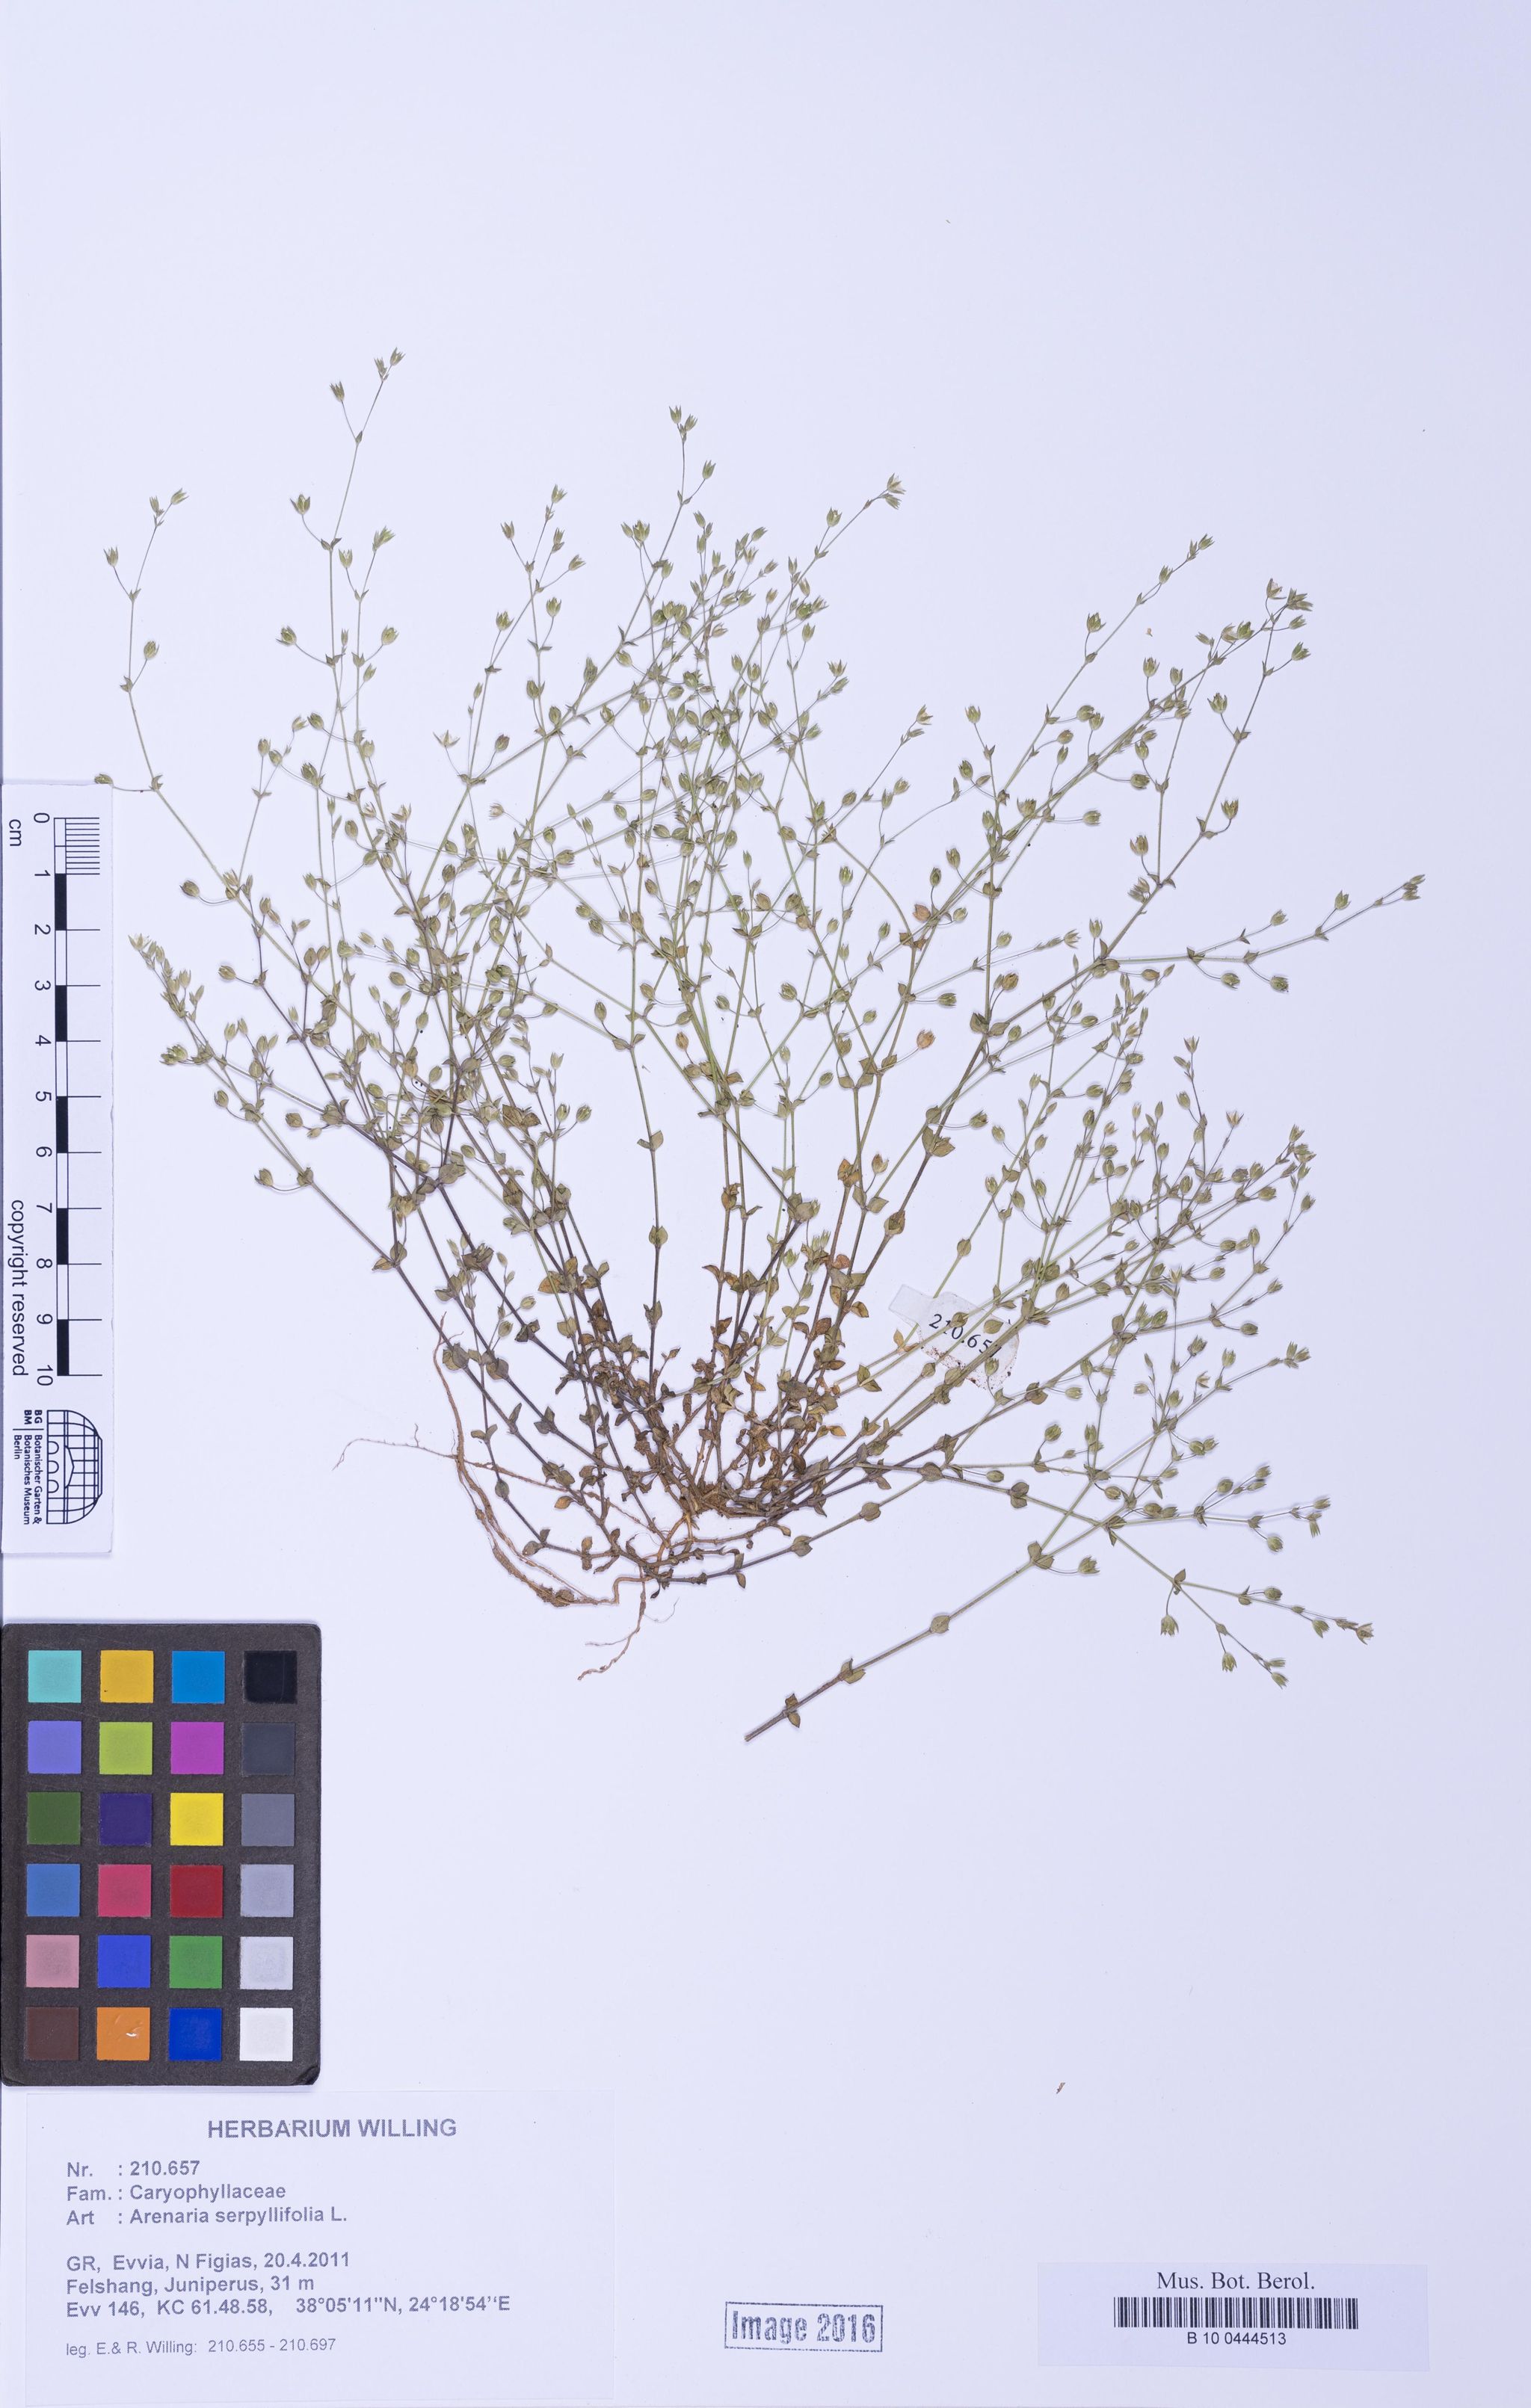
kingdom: Plantae
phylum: Tracheophyta
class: Magnoliopsida
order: Caryophyllales
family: Caryophyllaceae
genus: Arenaria
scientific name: Arenaria serpyllifolia
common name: Thyme-leaved sandwort
